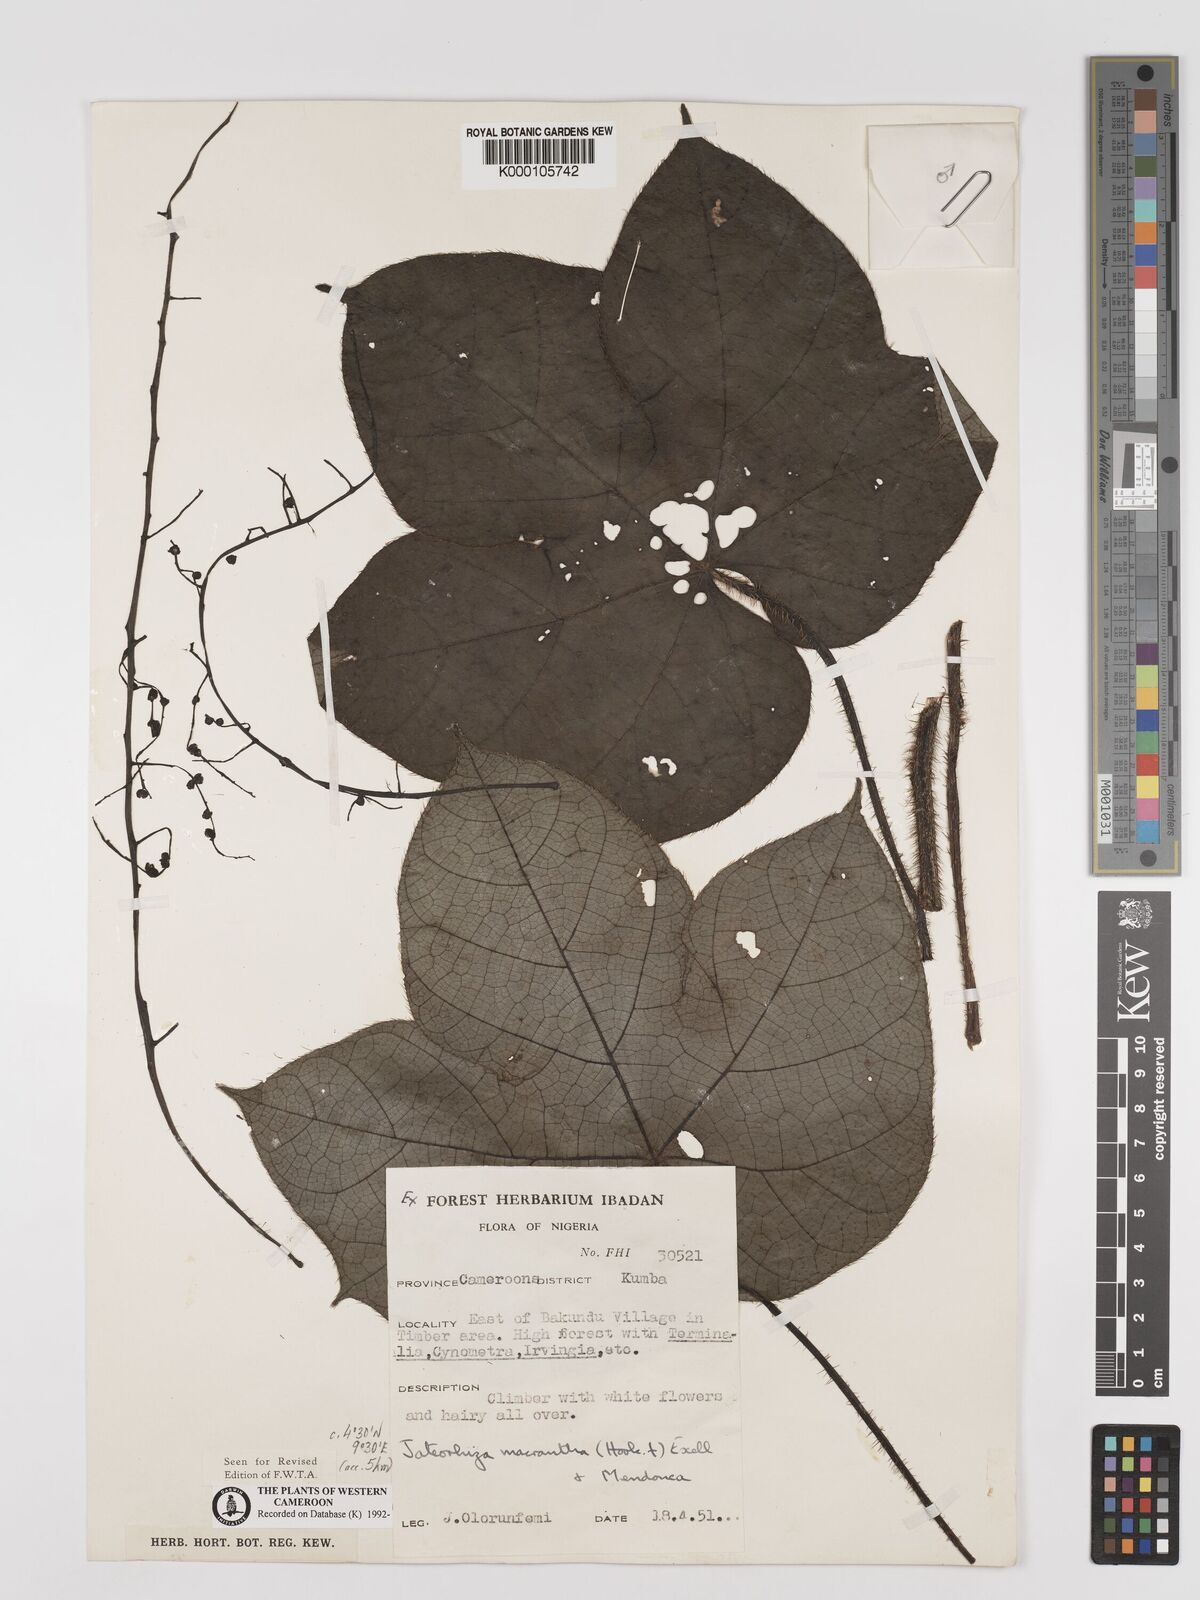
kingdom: Plantae
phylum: Tracheophyta
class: Magnoliopsida
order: Ranunculales
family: Menispermaceae
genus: Jateorhiza
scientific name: Jateorhiza
